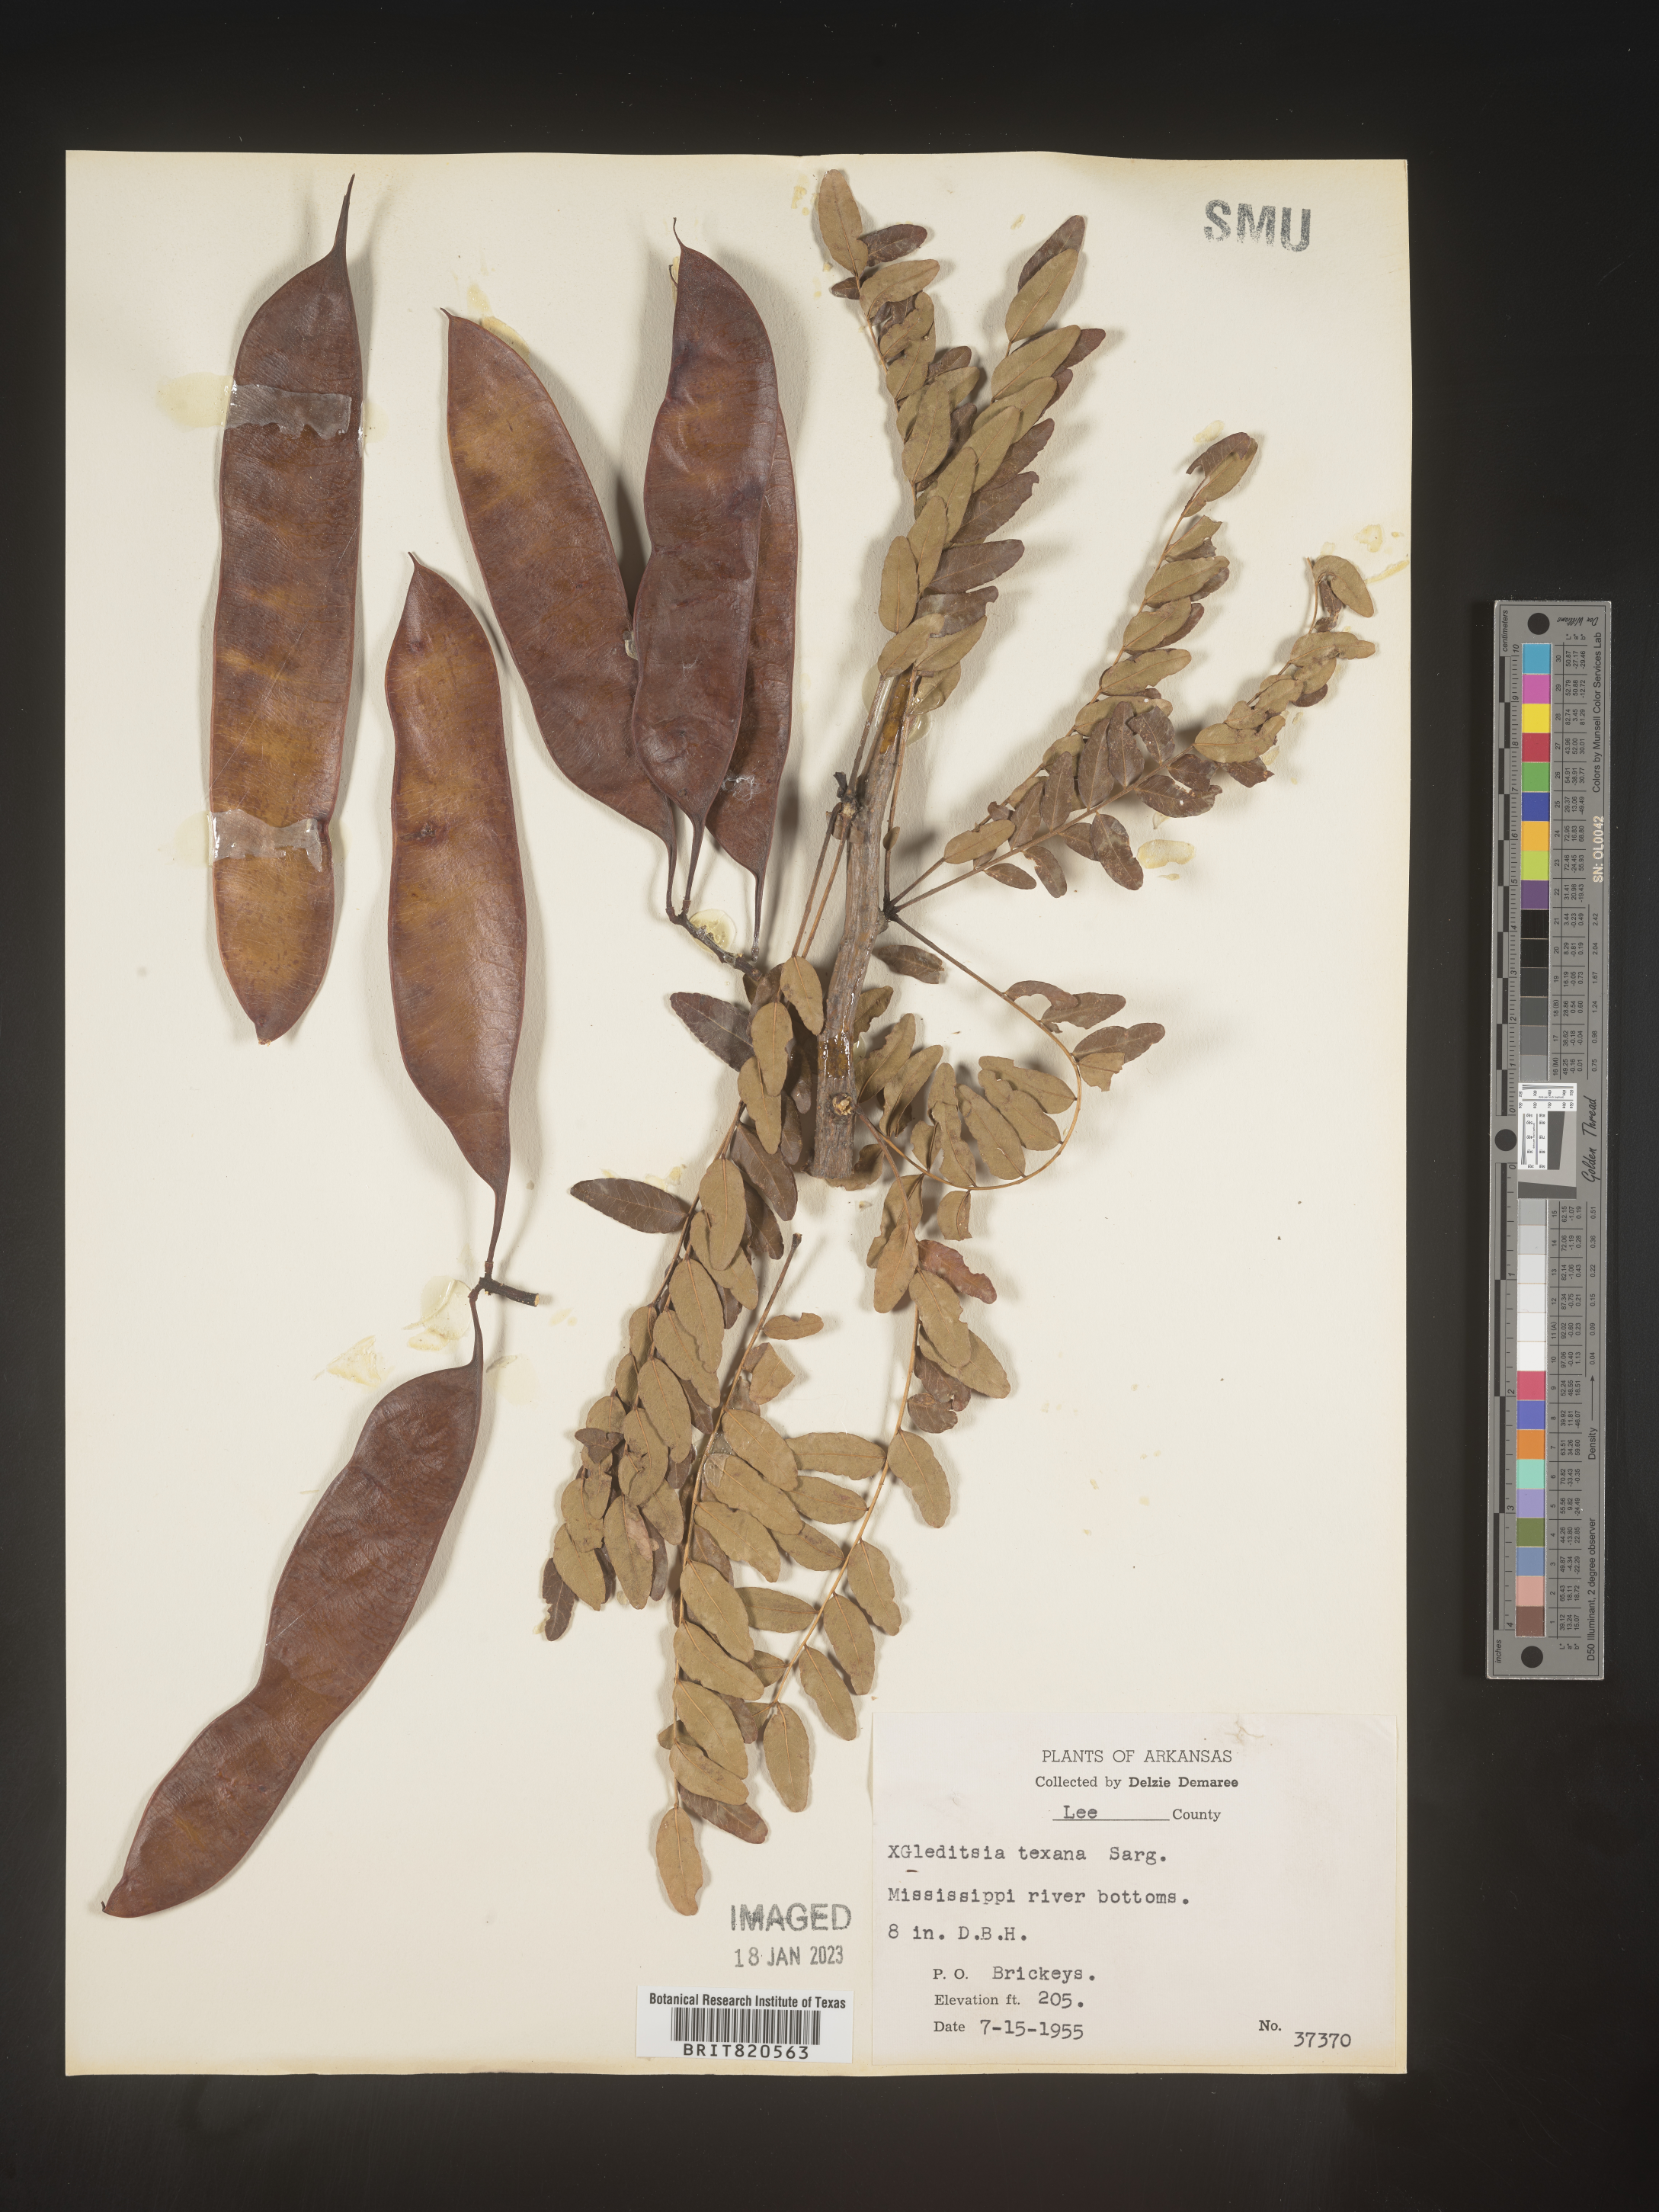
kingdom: Plantae
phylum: Tracheophyta
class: Magnoliopsida
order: Fabales
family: Fabaceae
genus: Gleditsia
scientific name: Gleditsia
